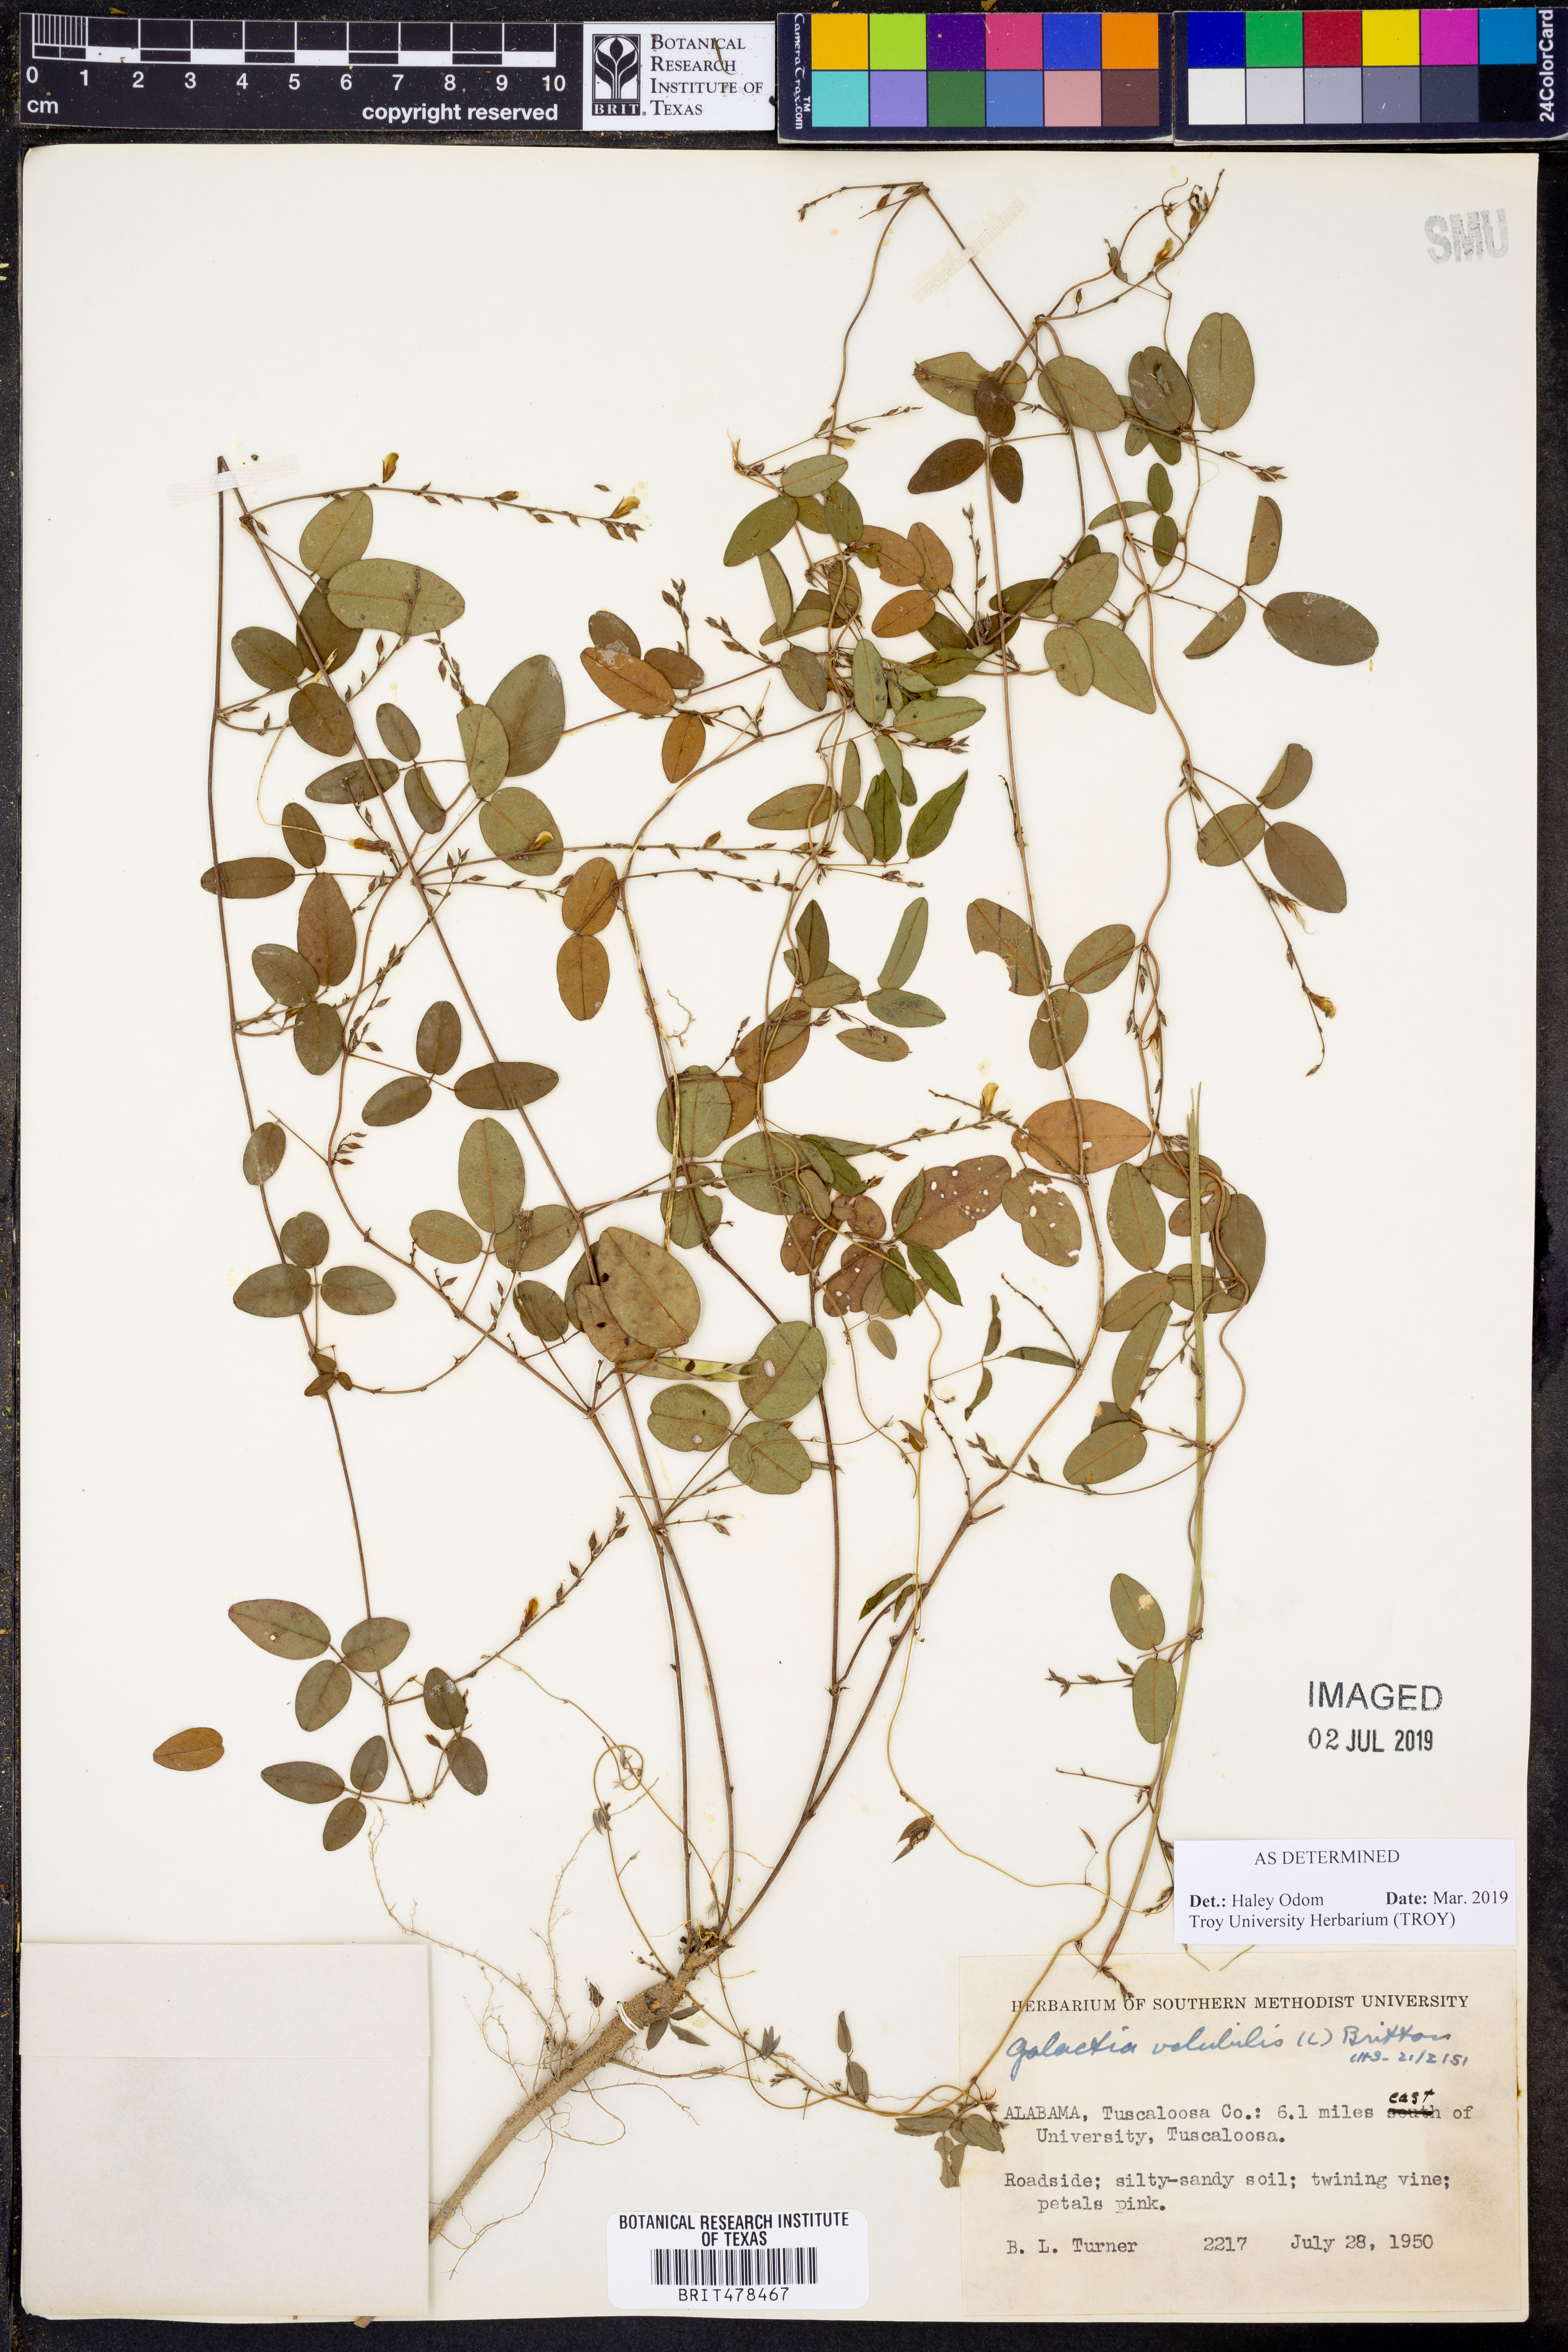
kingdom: Plantae
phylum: Tracheophyta
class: Magnoliopsida
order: Fabales
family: Fabaceae
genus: Galactia
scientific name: Galactia volubilis
